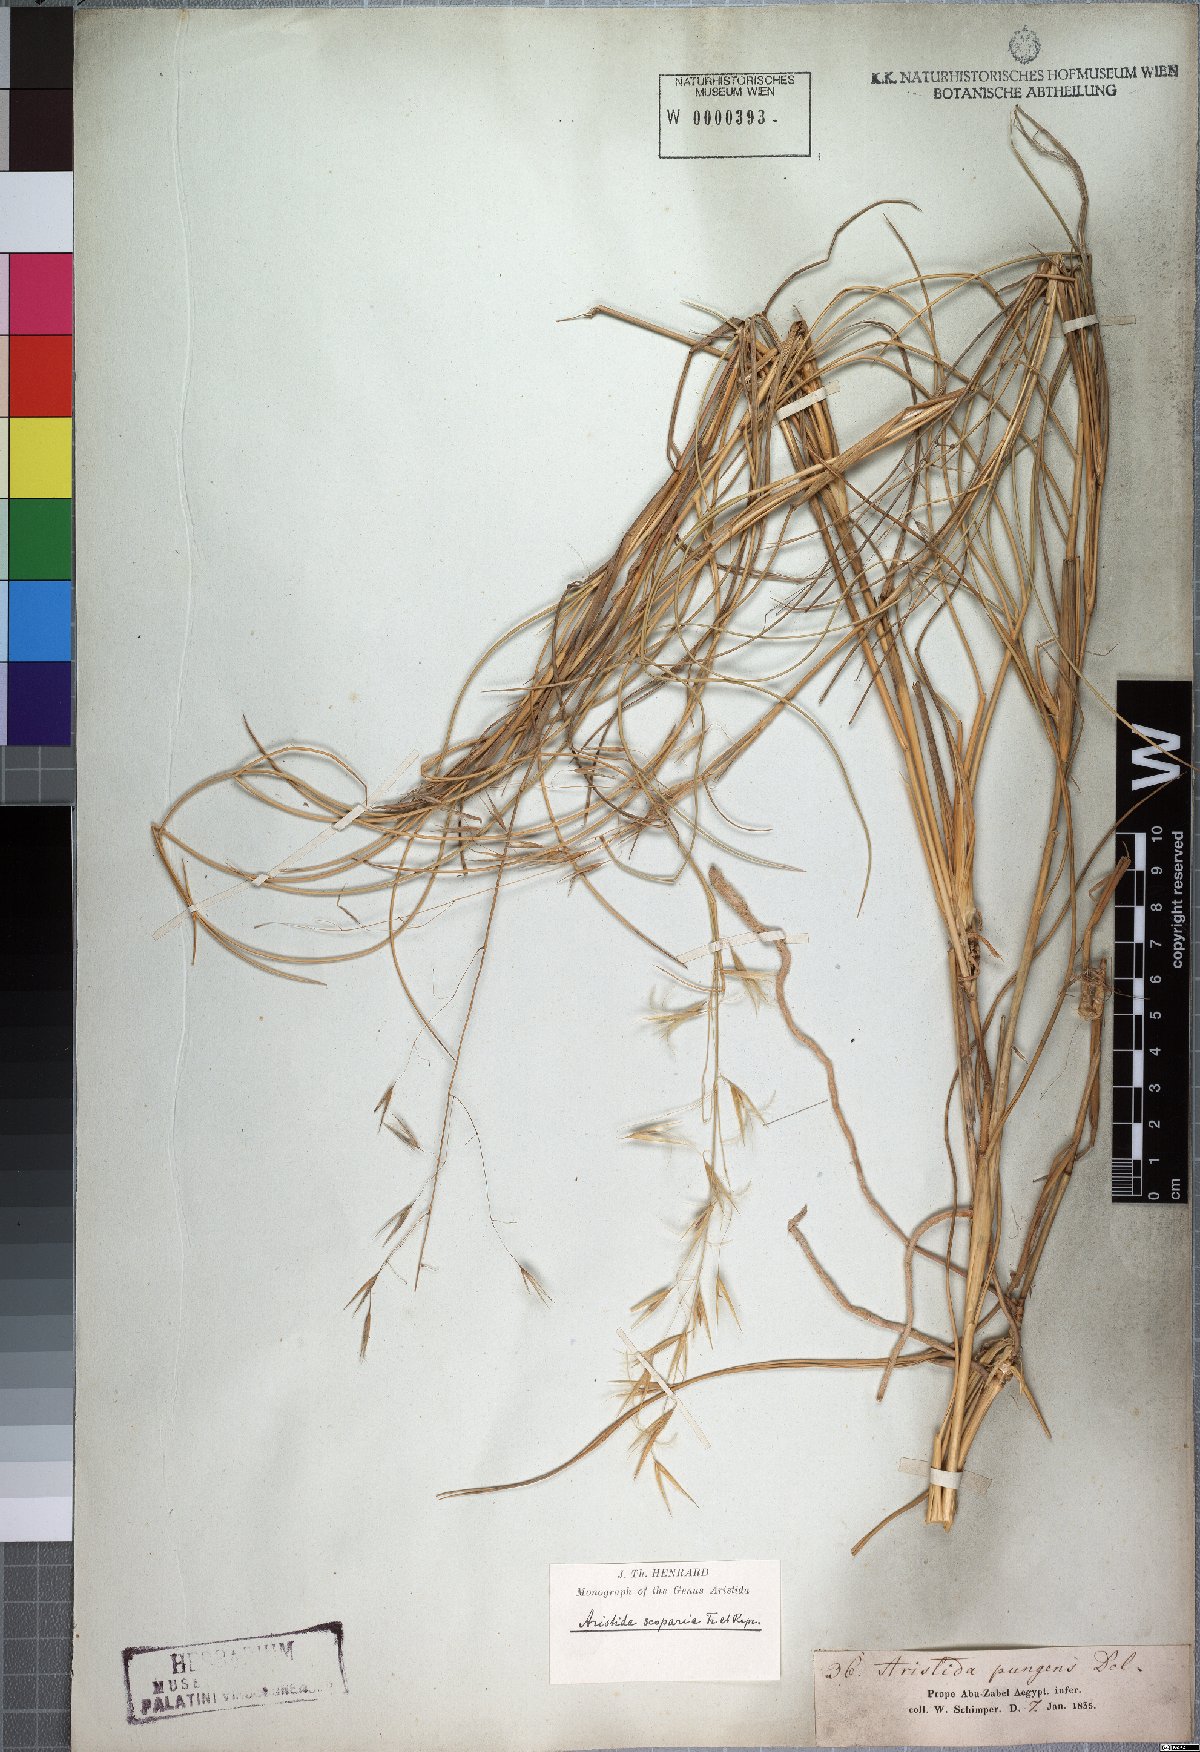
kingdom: Plantae
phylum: Tracheophyta
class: Liliopsida
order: Poales
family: Poaceae
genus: Stipagrostis
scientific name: Stipagrostis scoparia
